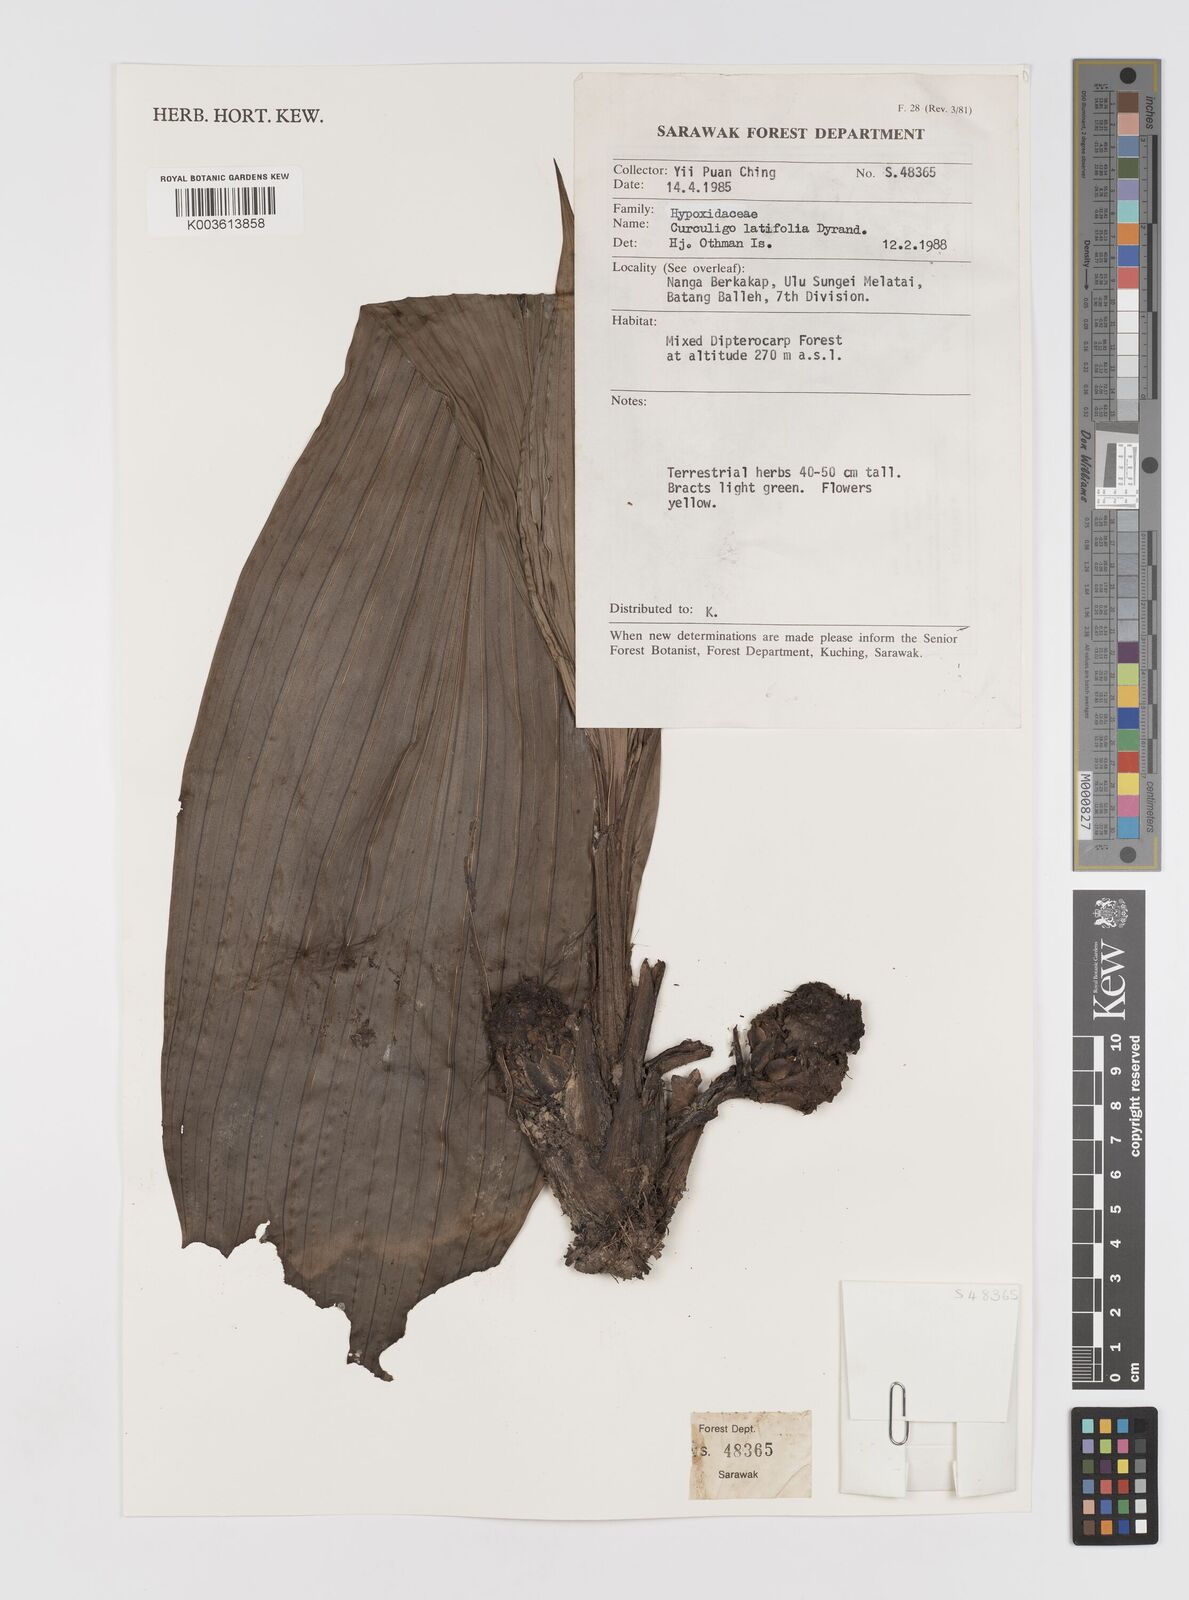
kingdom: Plantae
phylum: Tracheophyta
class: Liliopsida
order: Asparagales
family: Hypoxidaceae
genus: Curculigo
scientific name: Curculigo latifolia
